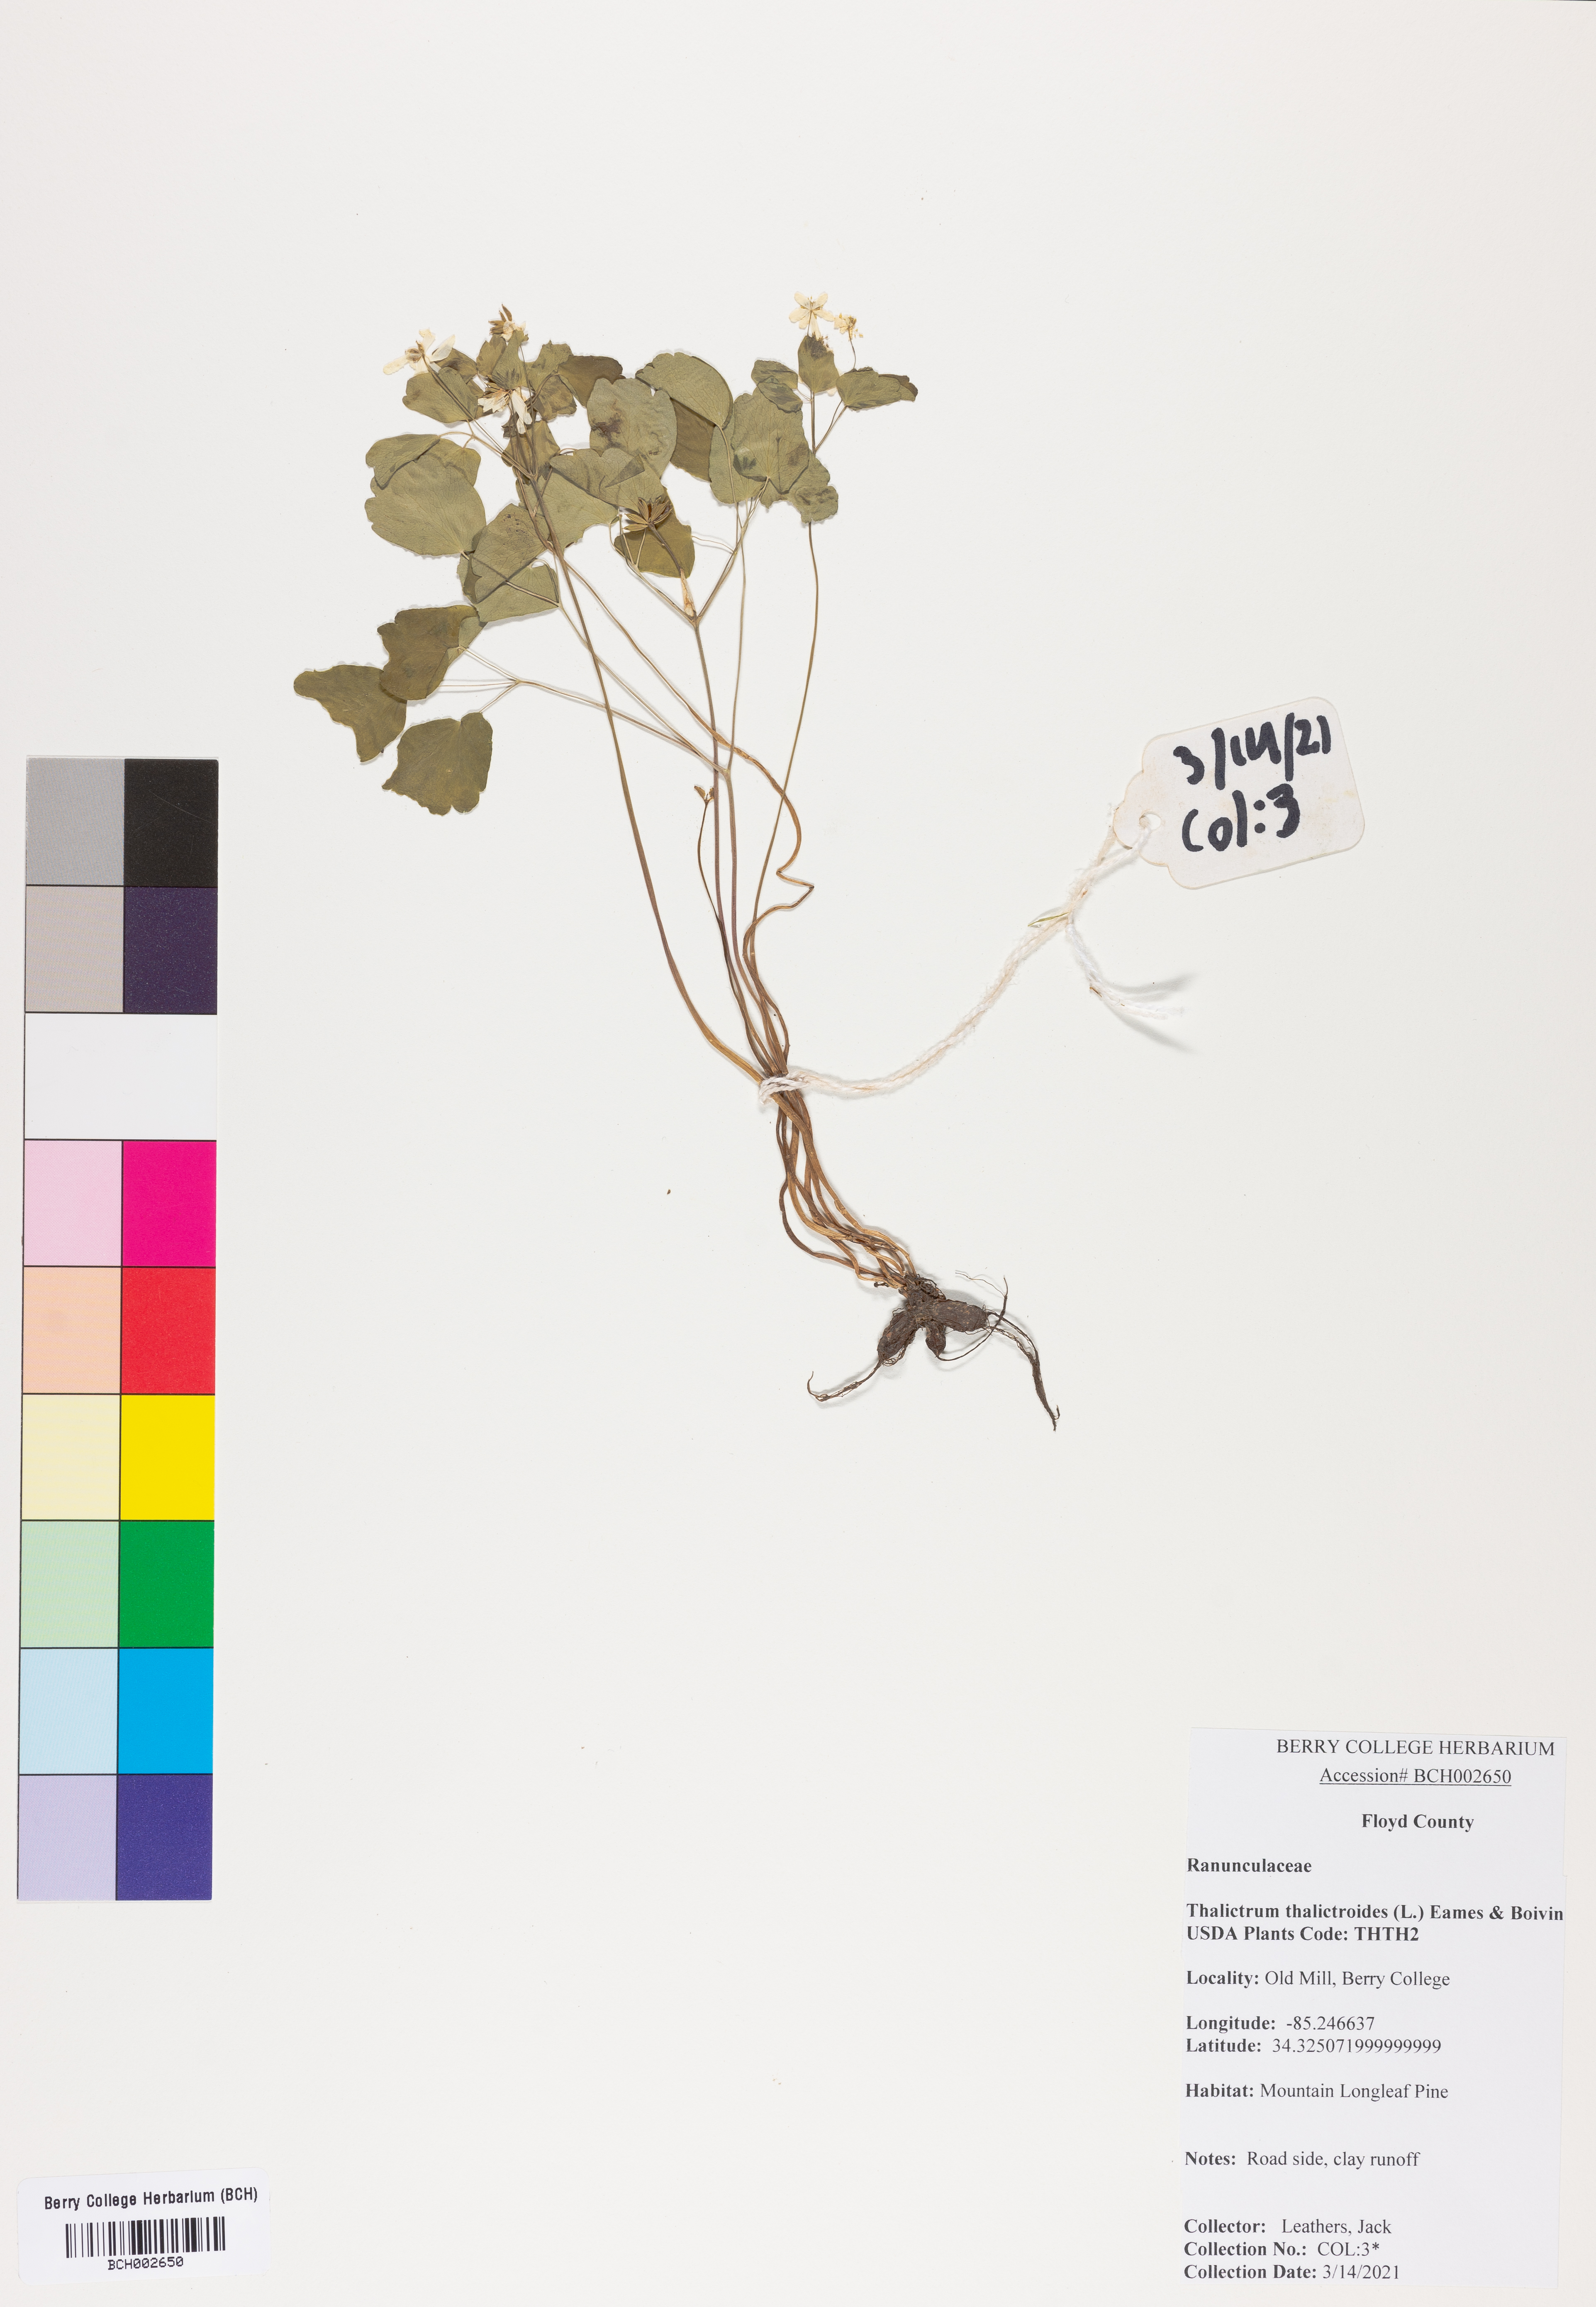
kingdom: Plantae
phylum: Tracheophyta
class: Magnoliopsida
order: Ranunculales
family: Ranunculaceae
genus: Thalictrum
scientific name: Thalictrum thalictroides
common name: Rue-anemone
